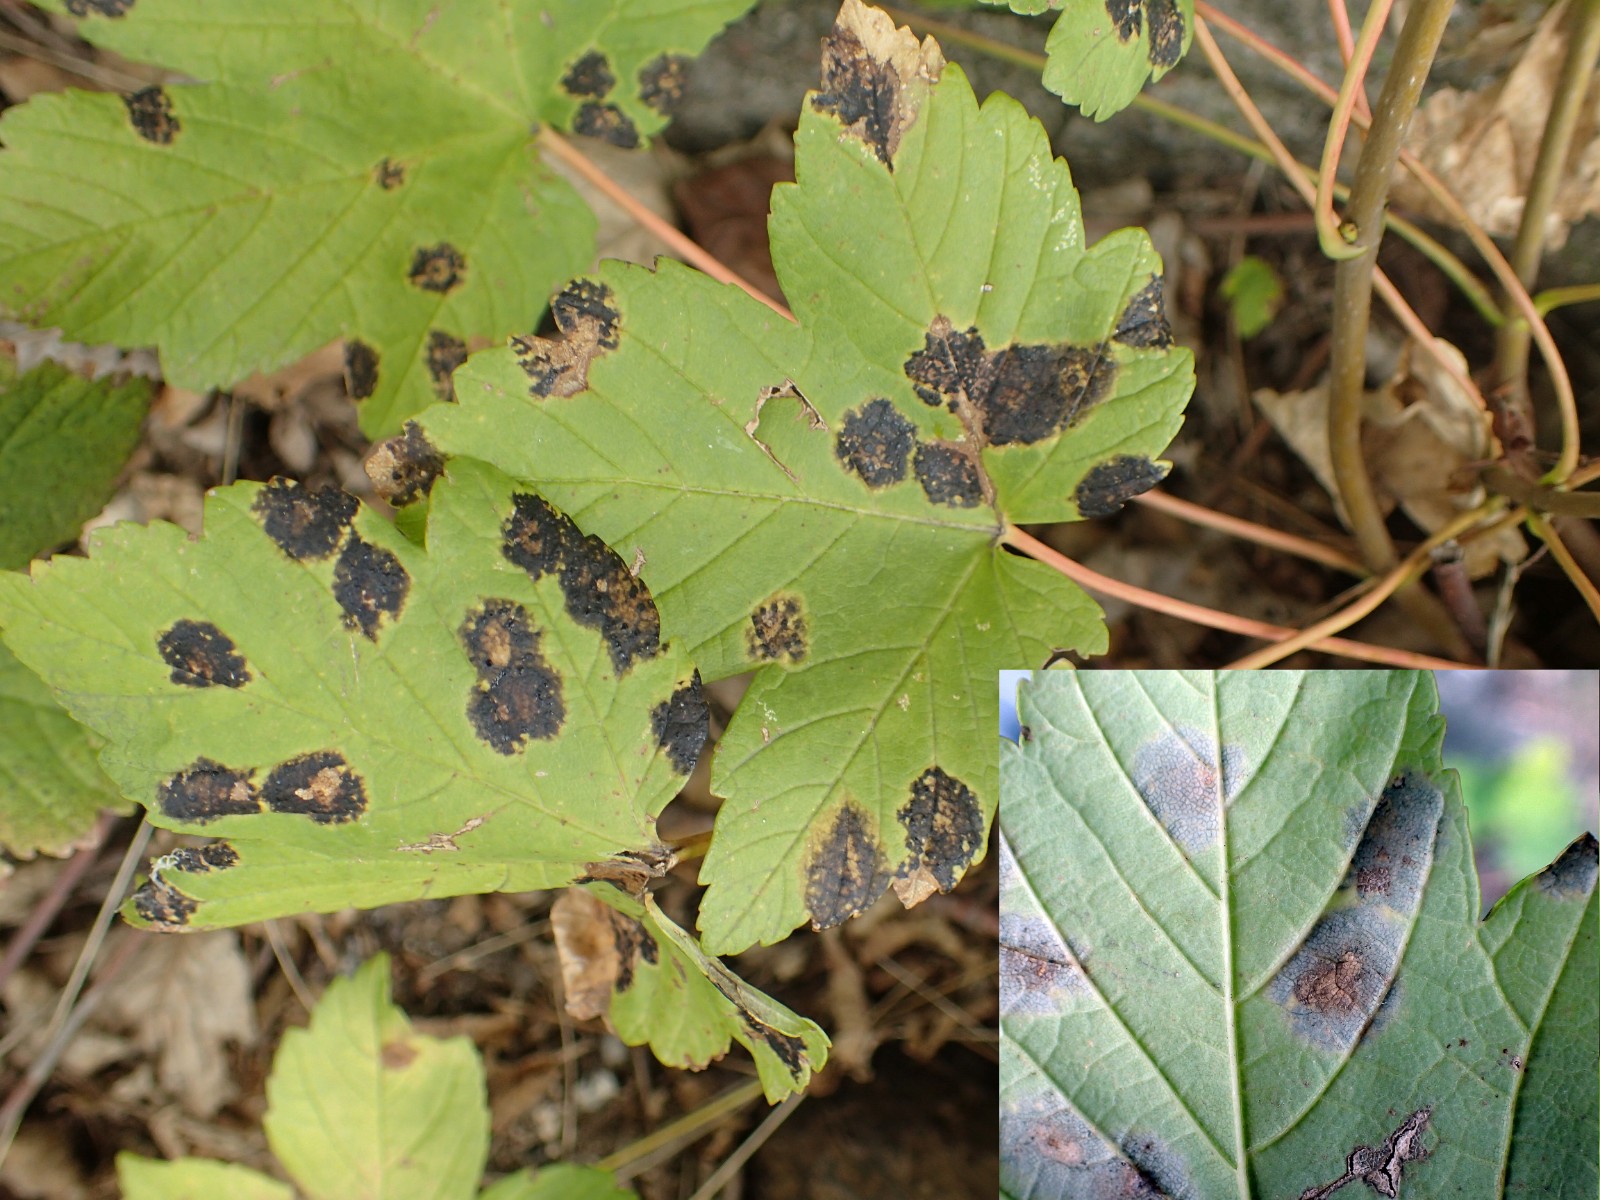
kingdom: Fungi
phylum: Ascomycota
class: Leotiomycetes
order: Rhytismatales
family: Rhytismataceae
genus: Rhytisma
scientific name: Rhytisma acerinum
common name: ahorn-rynkeplet
